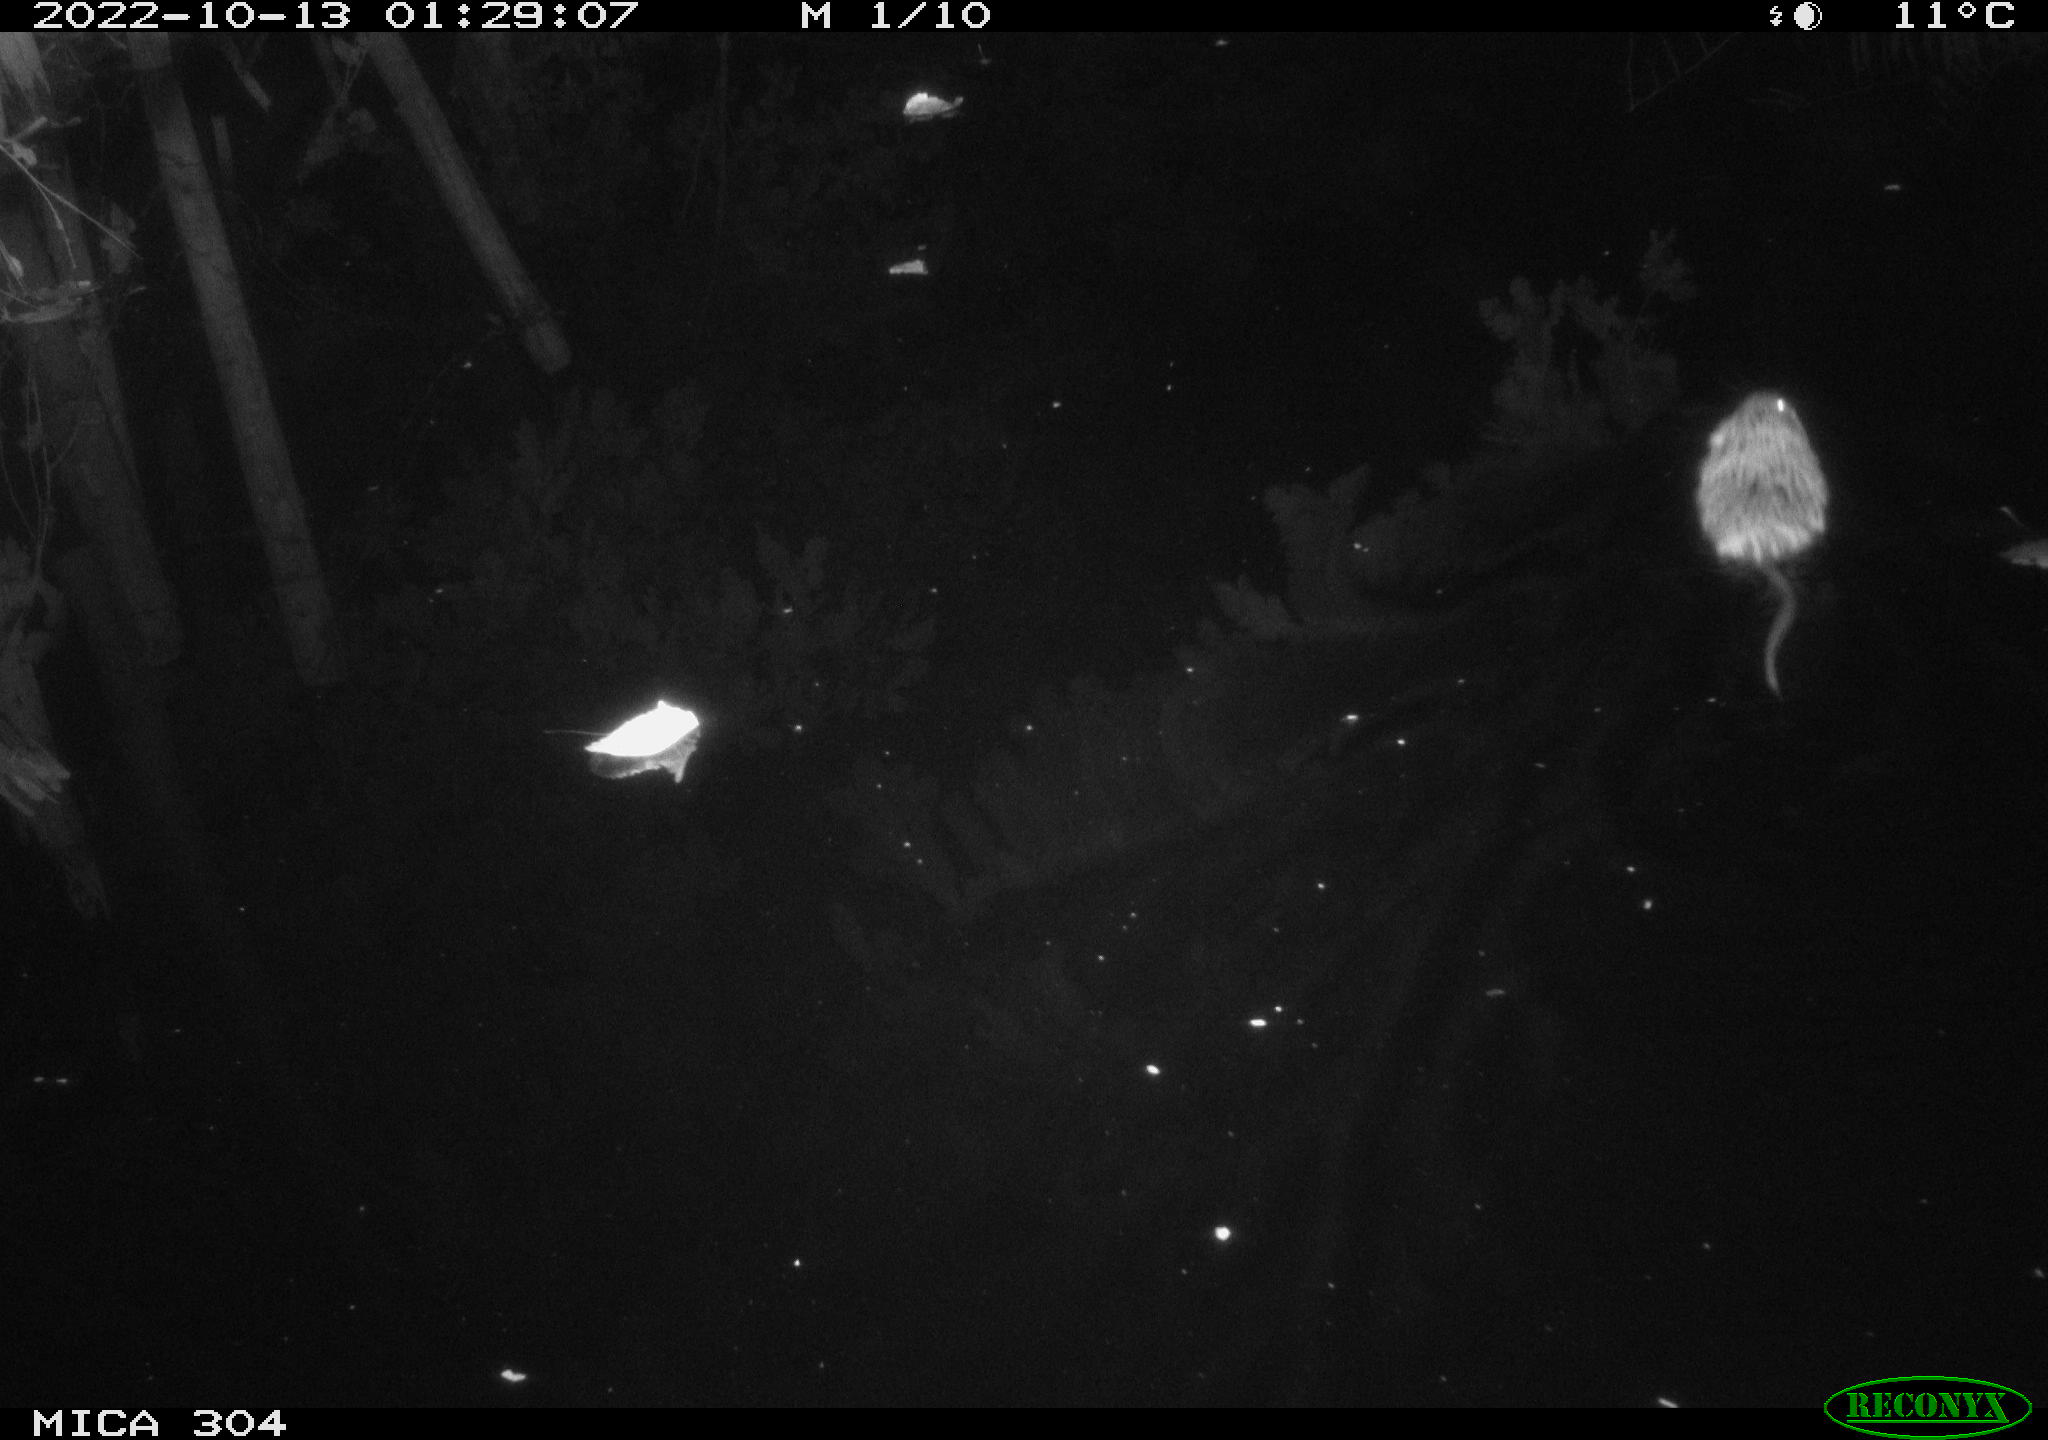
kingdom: Animalia
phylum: Chordata
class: Mammalia
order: Rodentia
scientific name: Rodentia
